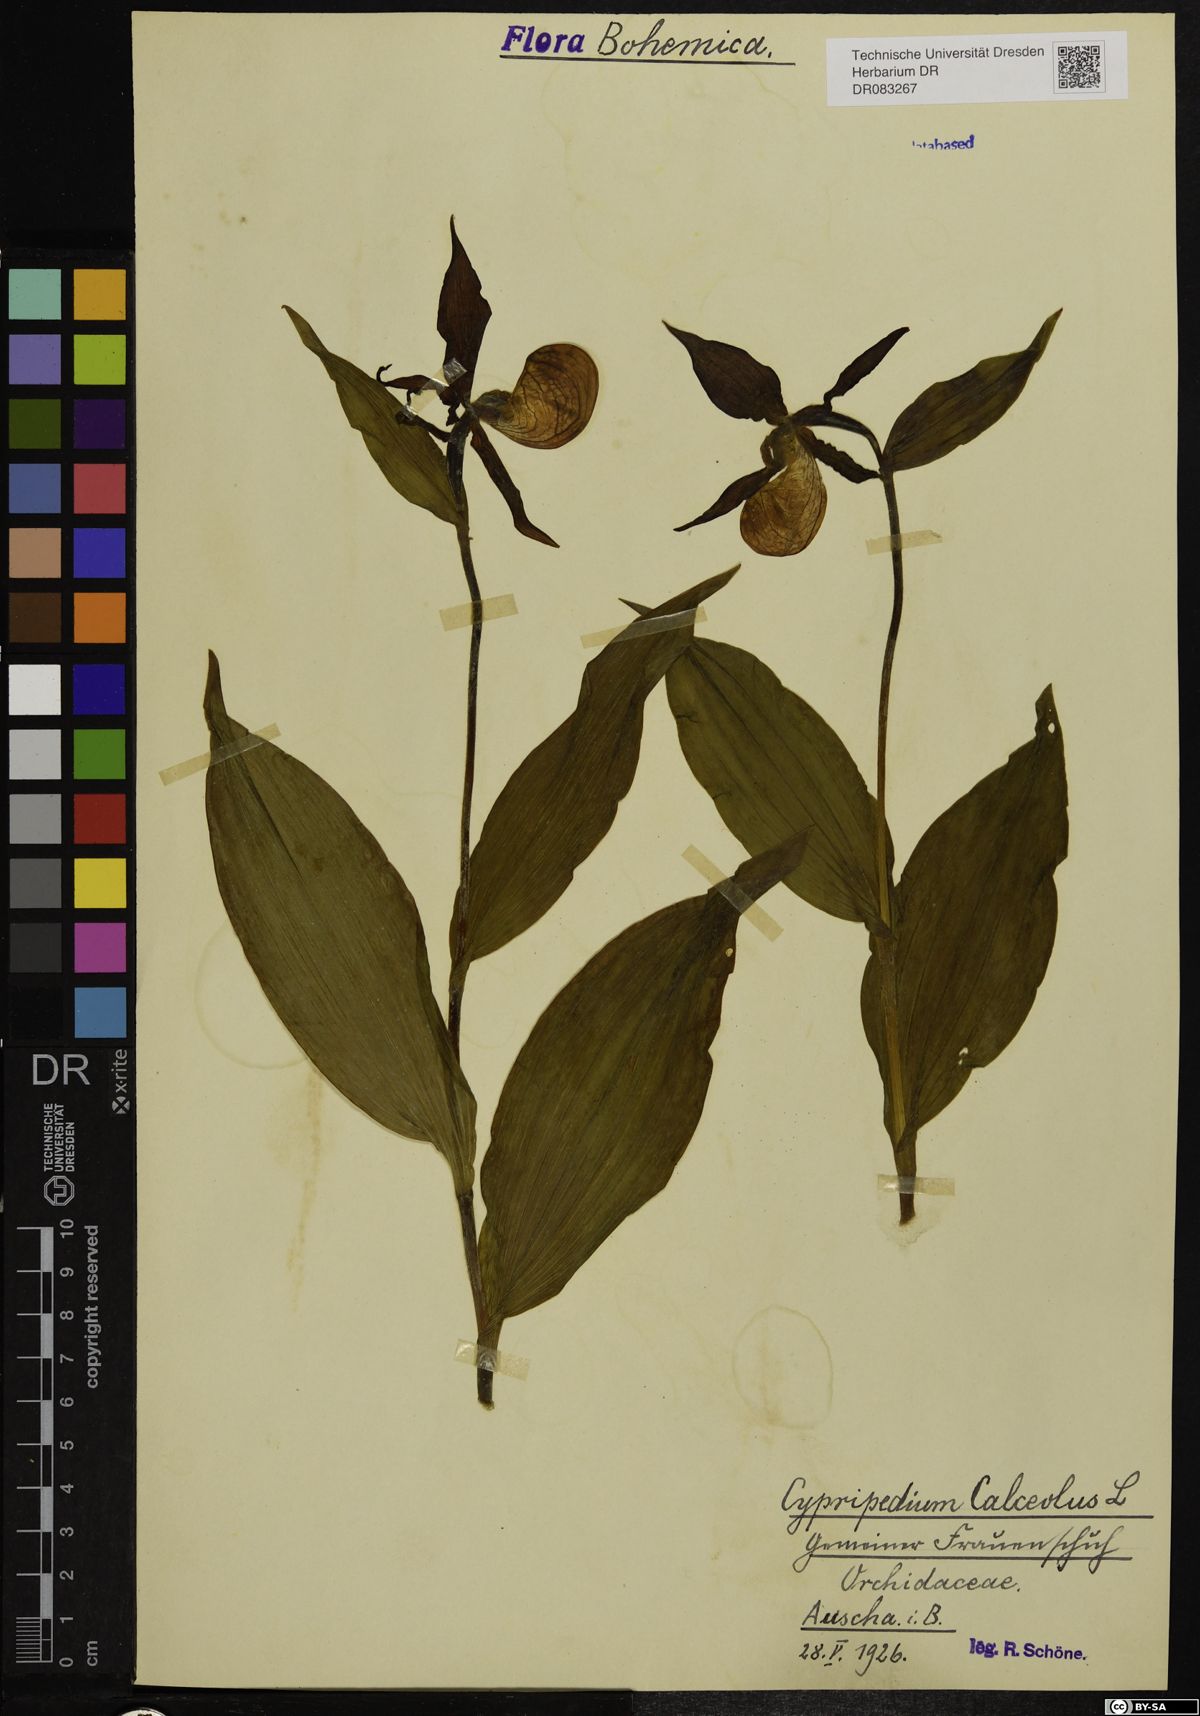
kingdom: Plantae
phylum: Tracheophyta
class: Liliopsida
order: Asparagales
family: Orchidaceae
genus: Cypripedium
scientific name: Cypripedium calceolus
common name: Lady's-slipper
